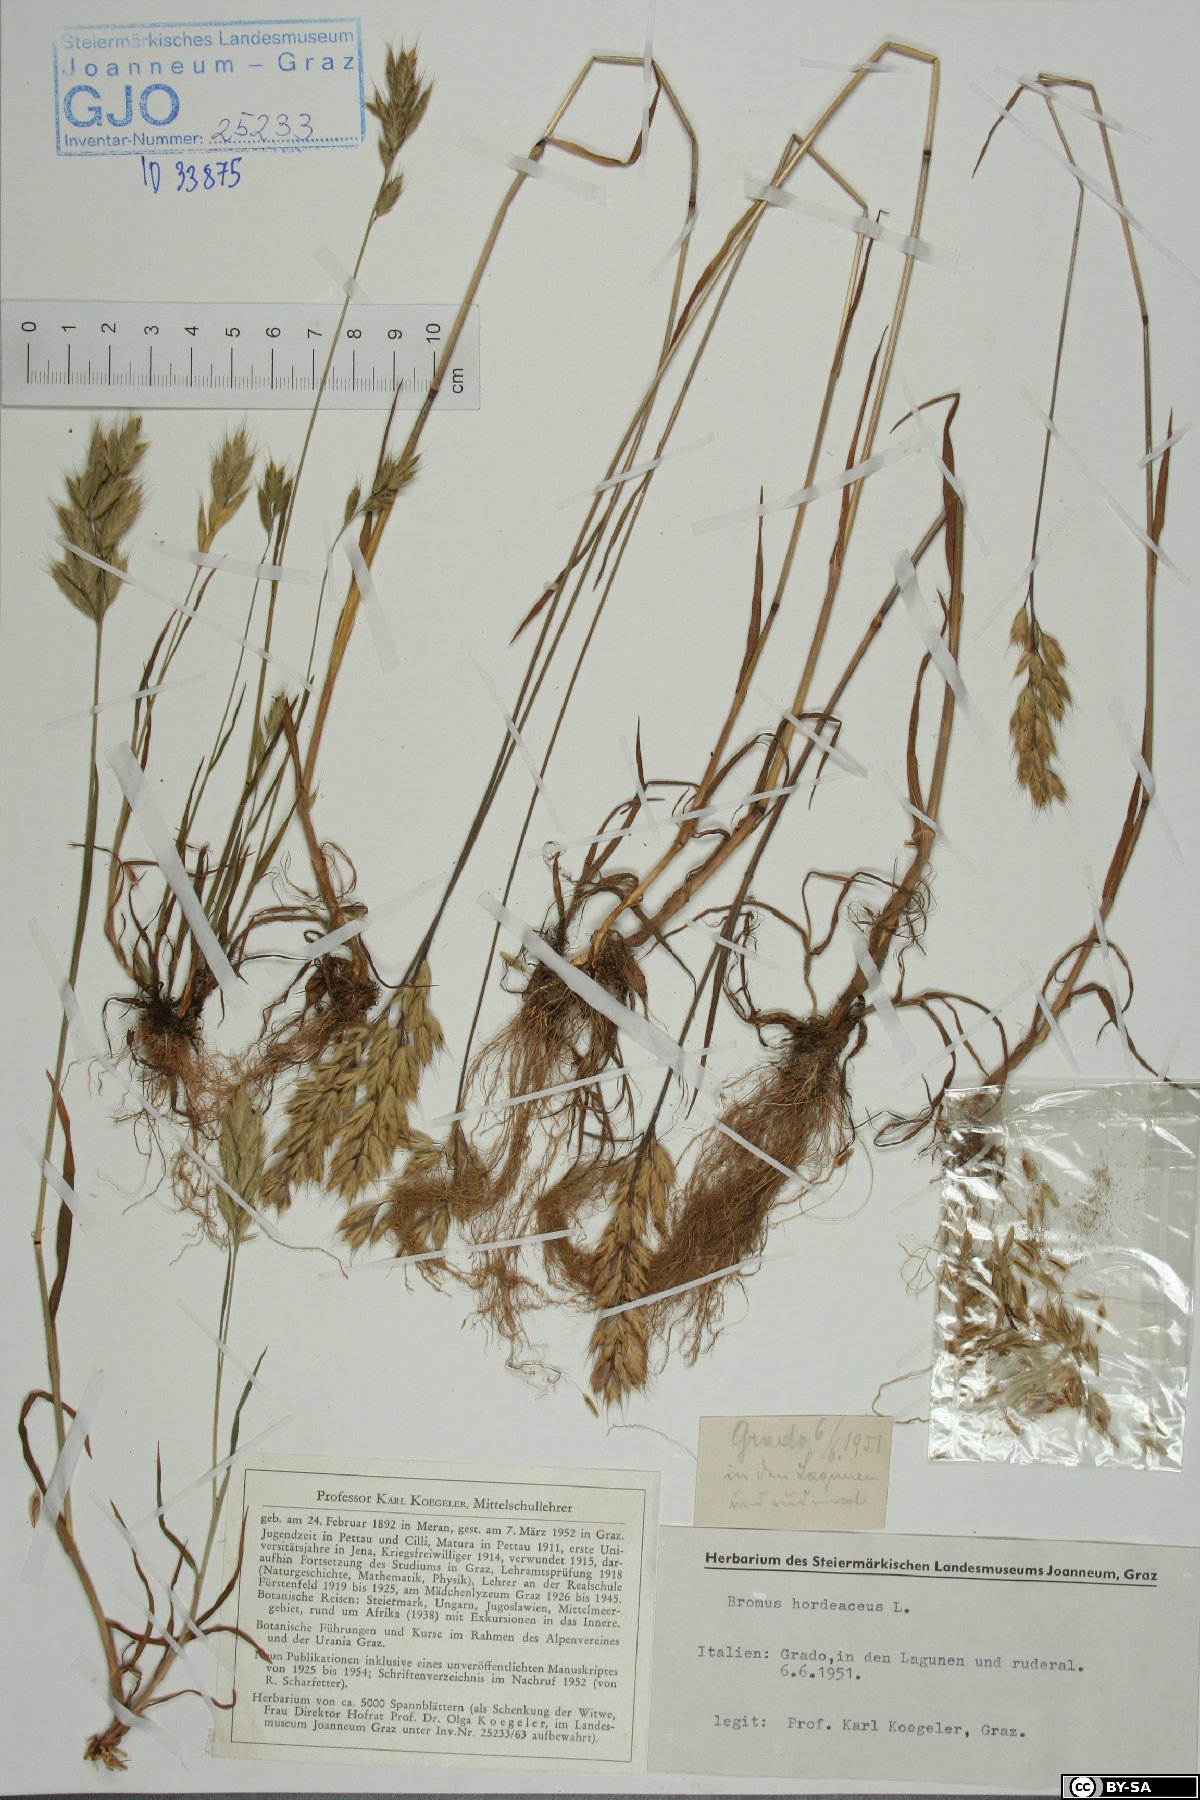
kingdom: Plantae
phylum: Tracheophyta
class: Liliopsida
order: Poales
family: Poaceae
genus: Bromus
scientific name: Bromus hordeaceus
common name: Soft brome
